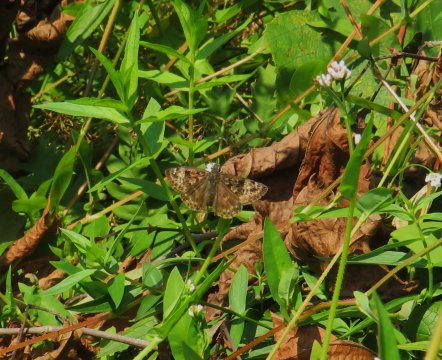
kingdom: Animalia
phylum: Arthropoda
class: Insecta
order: Lepidoptera
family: Hesperiidae
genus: Gesta
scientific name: Gesta
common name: Horace's Duskywing
